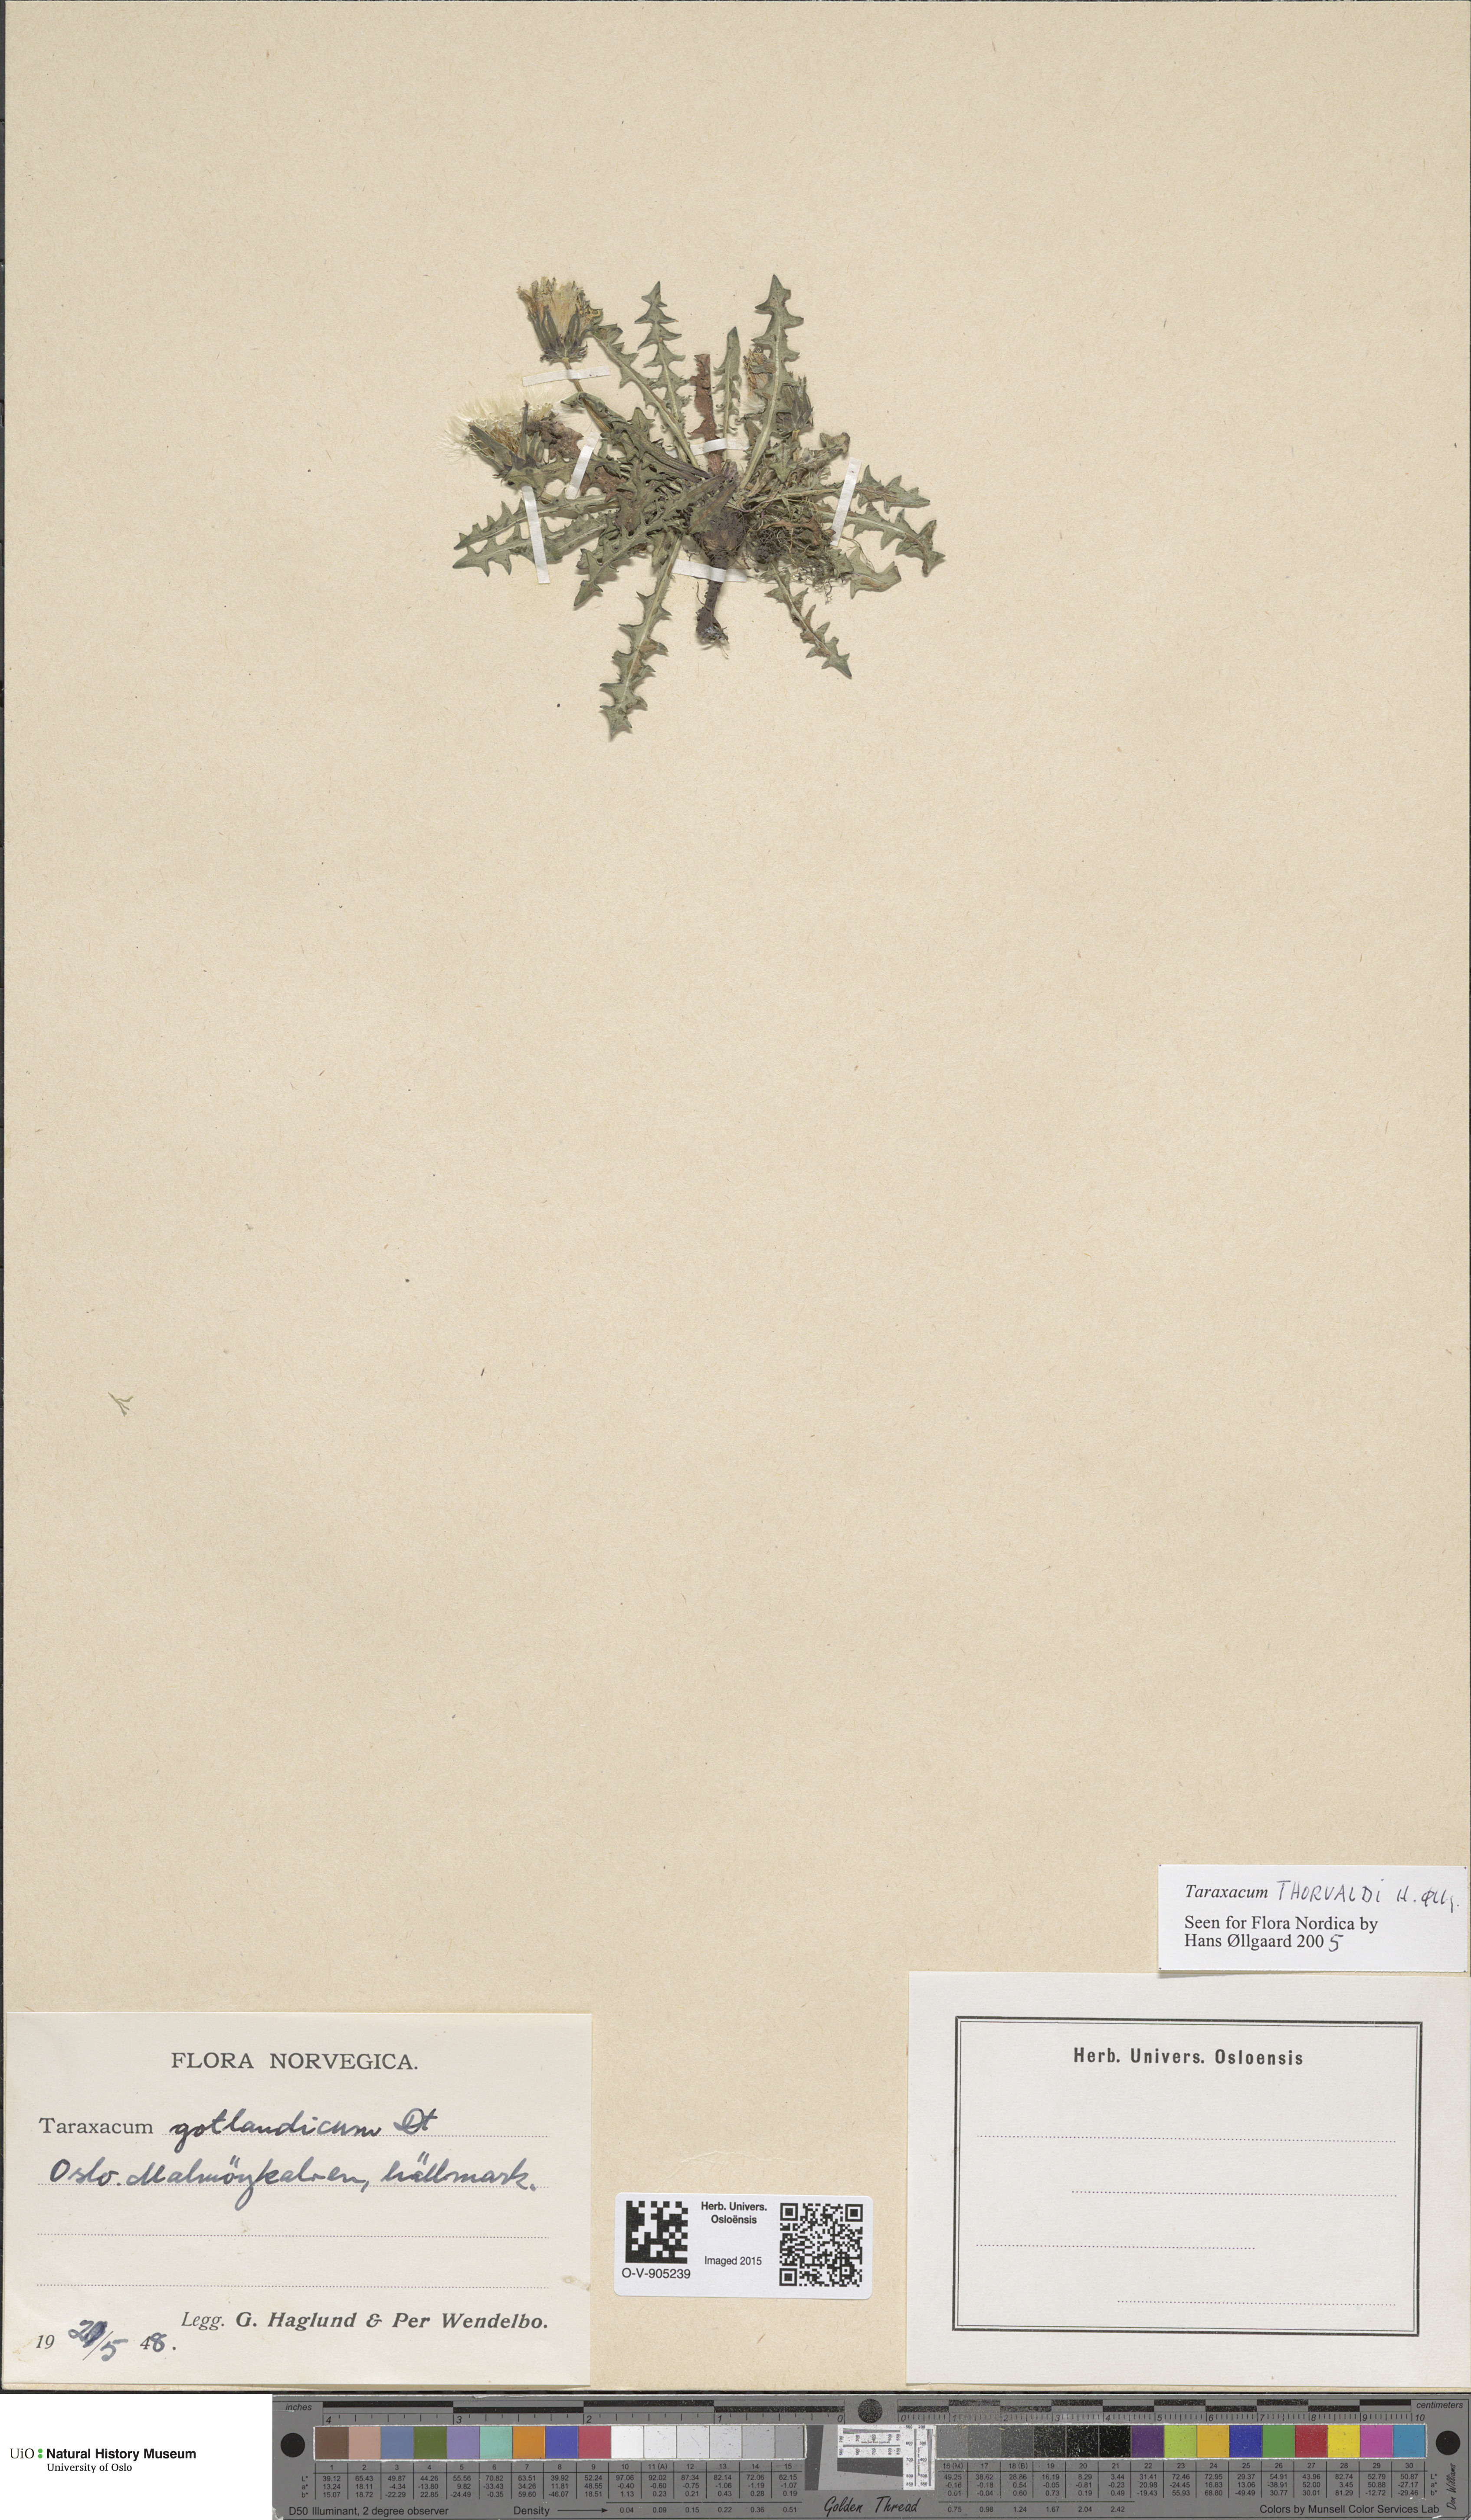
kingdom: Plantae
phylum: Tracheophyta
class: Magnoliopsida
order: Asterales
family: Asteraceae
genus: Taraxacum
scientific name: Taraxacum thorvaldii
